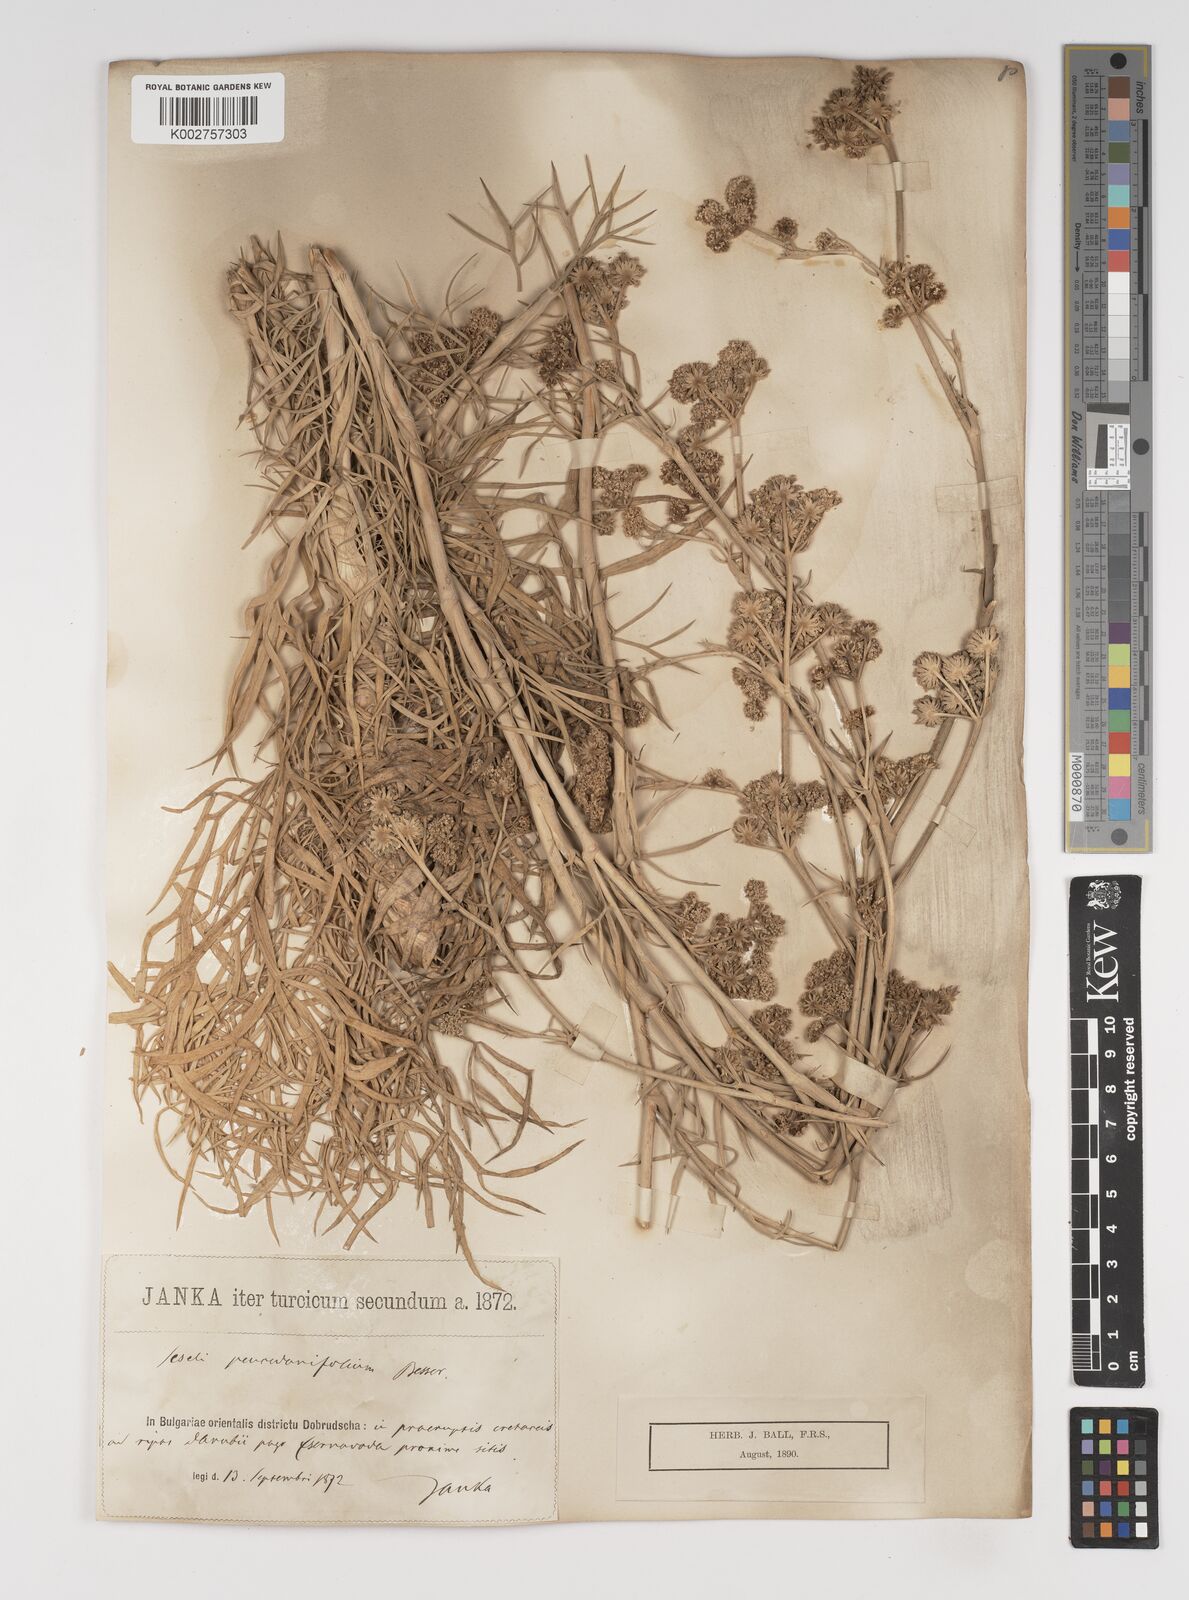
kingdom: Plantae
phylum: Tracheophyta
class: Magnoliopsida
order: Apiales
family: Apiaceae
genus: Seseli
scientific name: Seseli besserianum
